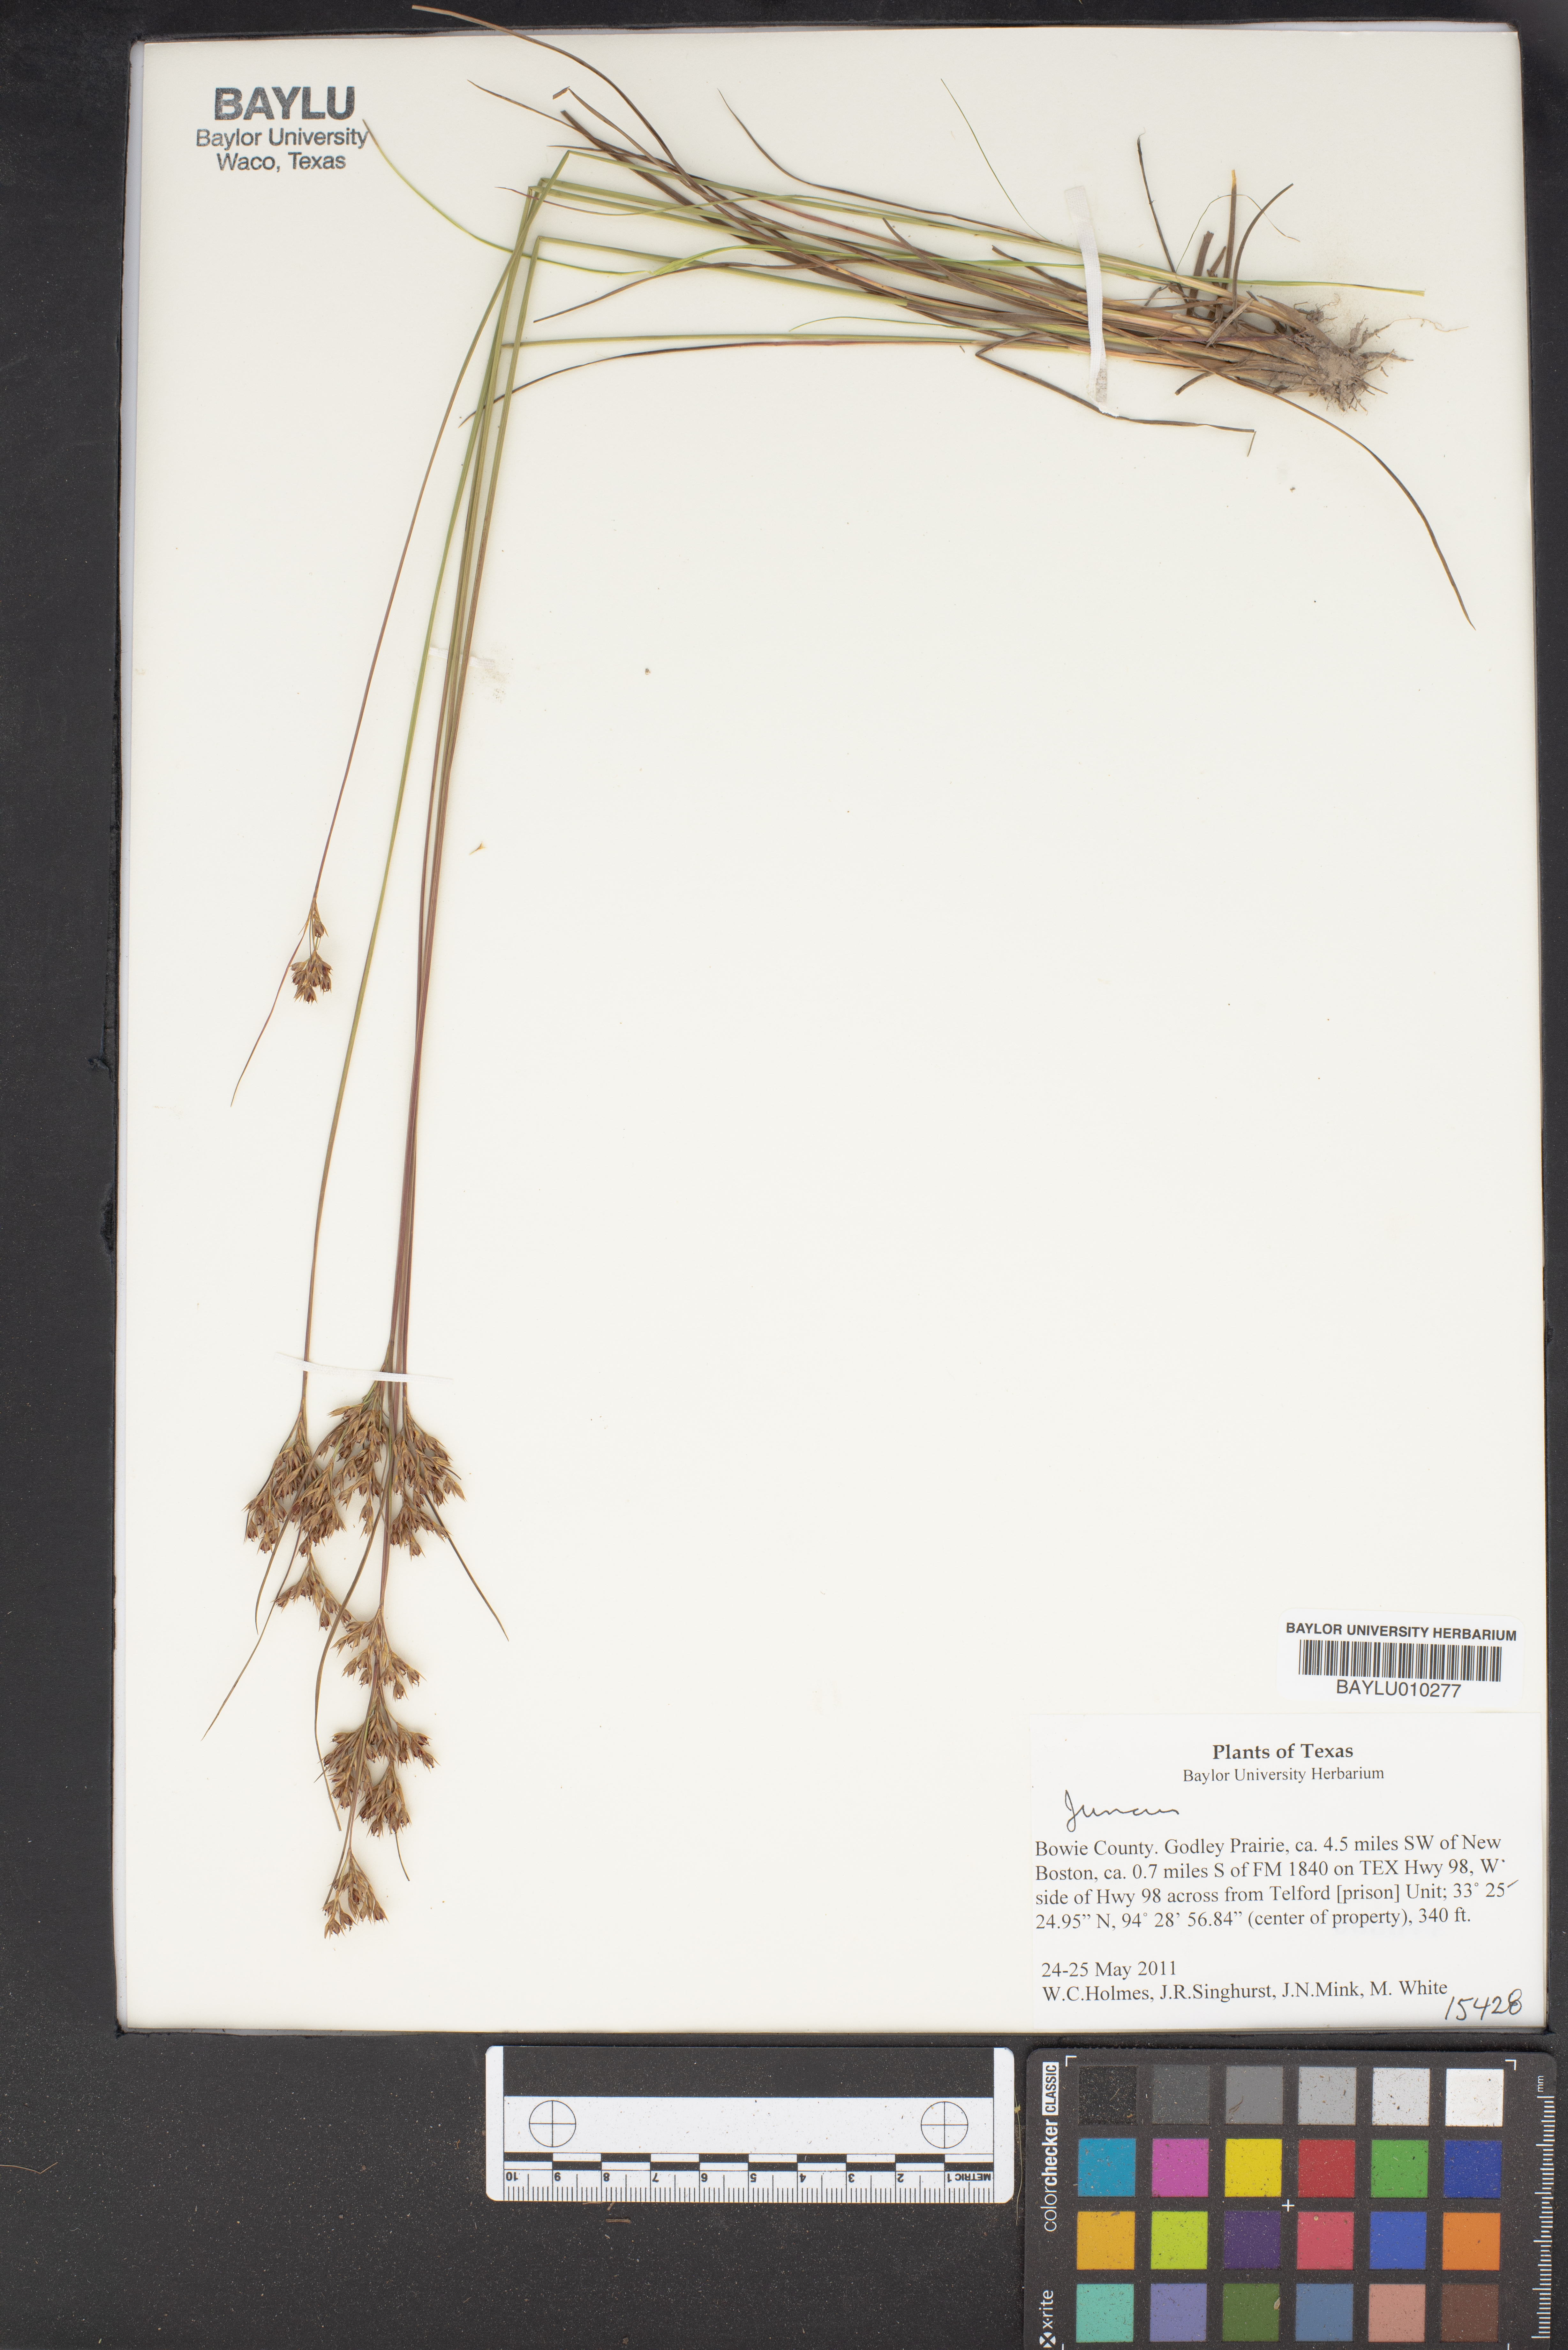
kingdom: Plantae
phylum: Tracheophyta
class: Liliopsida
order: Poales
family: Juncaceae
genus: Juncus
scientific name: Juncus
